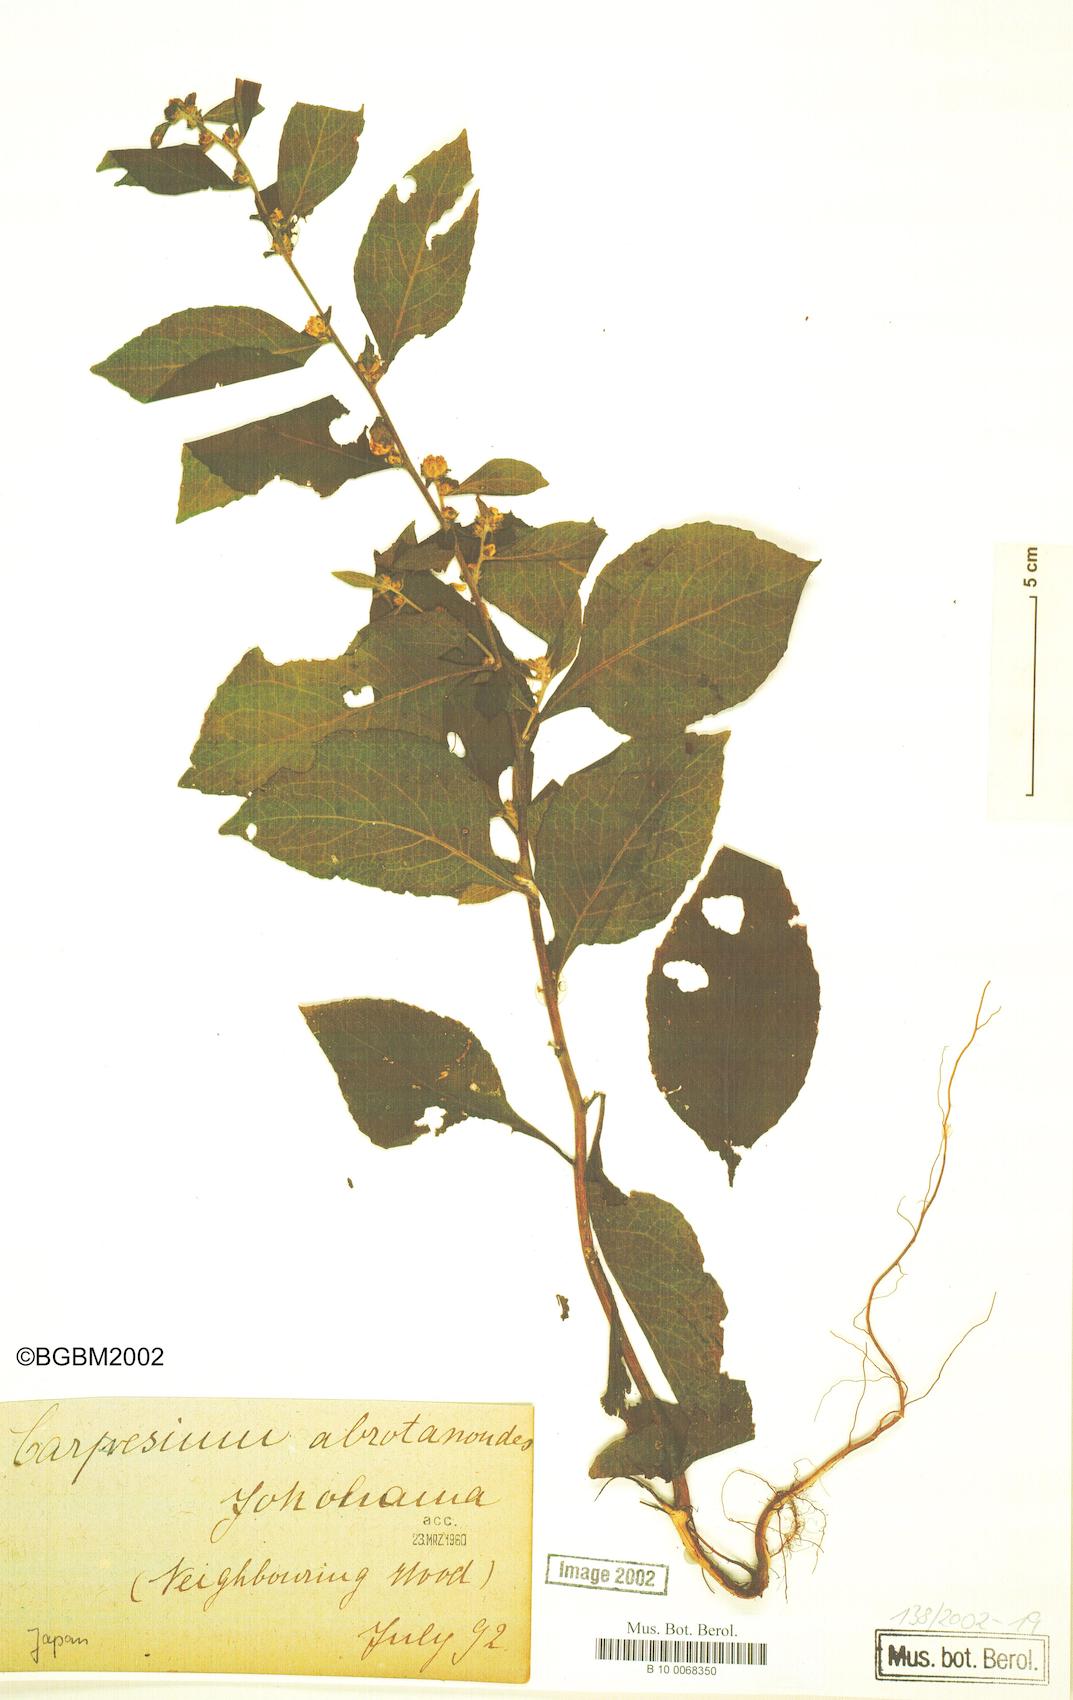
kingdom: Plantae
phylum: Tracheophyta
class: Magnoliopsida
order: Asterales
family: Asteraceae
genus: Carpesium
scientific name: Carpesium abrotanoides
